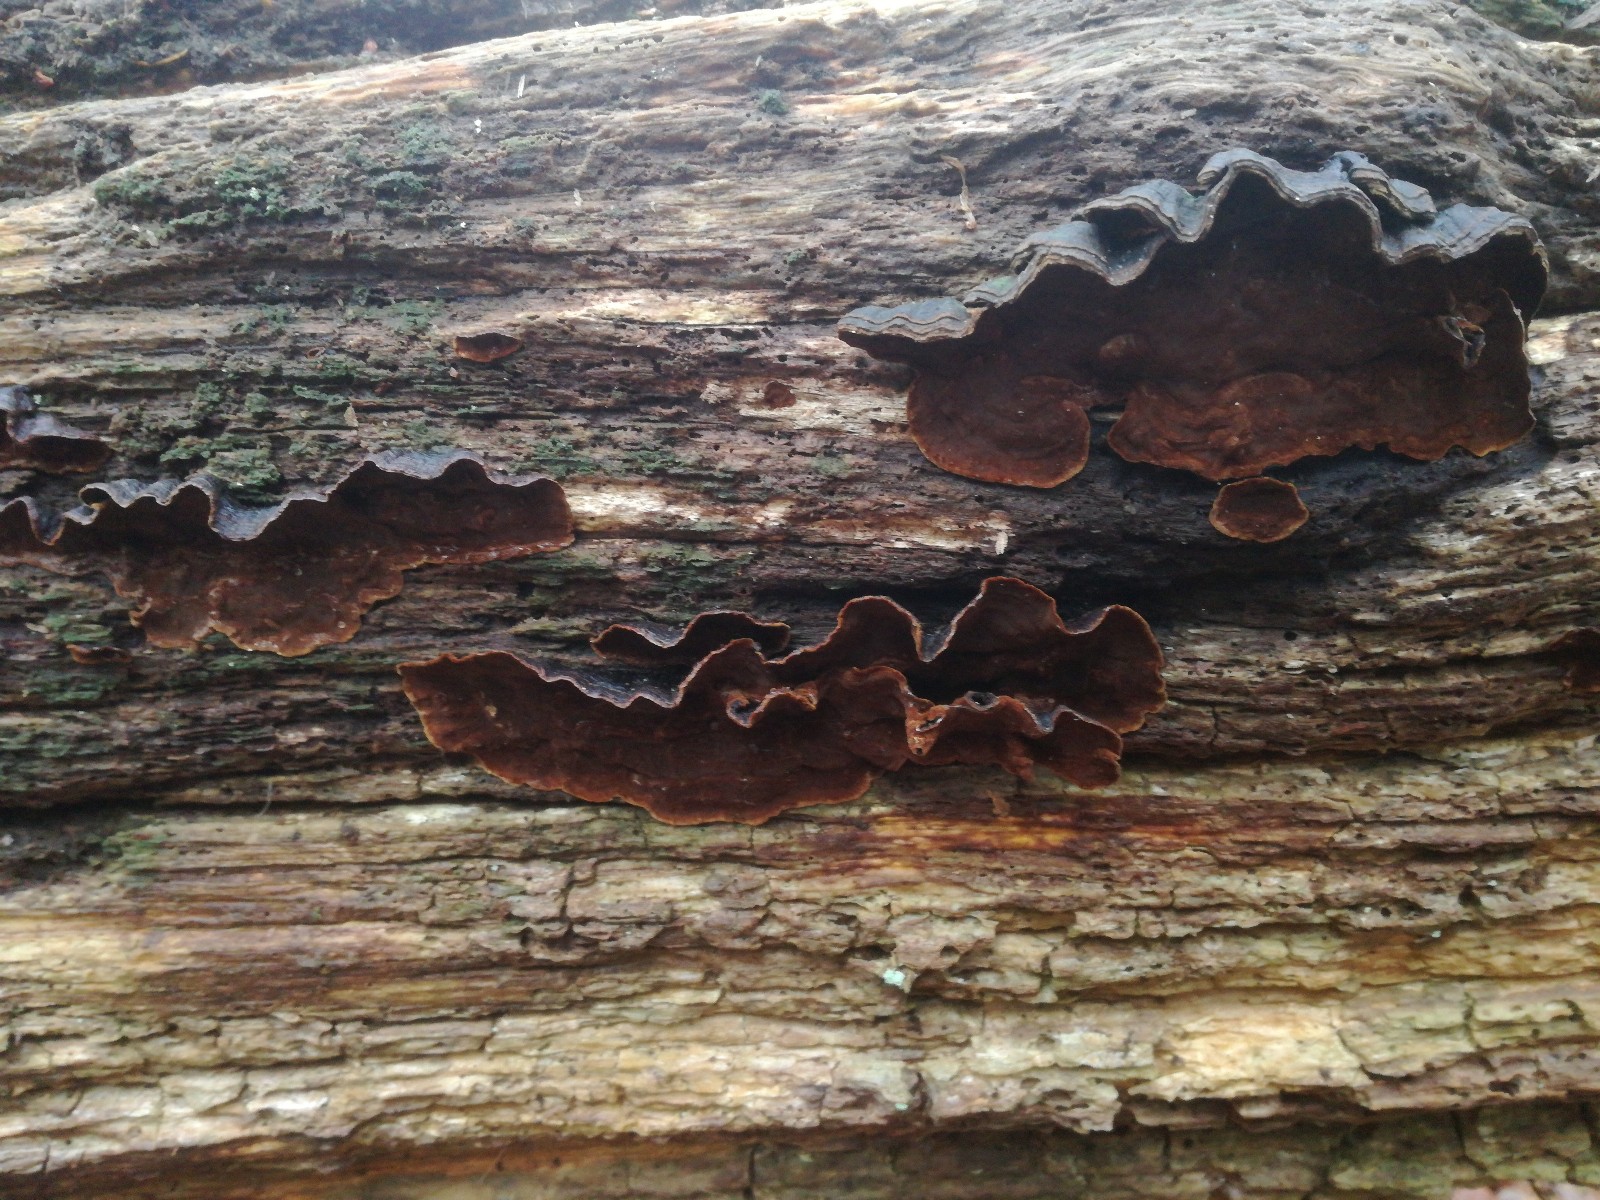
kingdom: Fungi
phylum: Basidiomycota
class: Agaricomycetes
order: Hymenochaetales
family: Hymenochaetaceae
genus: Hymenochaete
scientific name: Hymenochaete rubiginosa
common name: stiv ruslædersvamp
